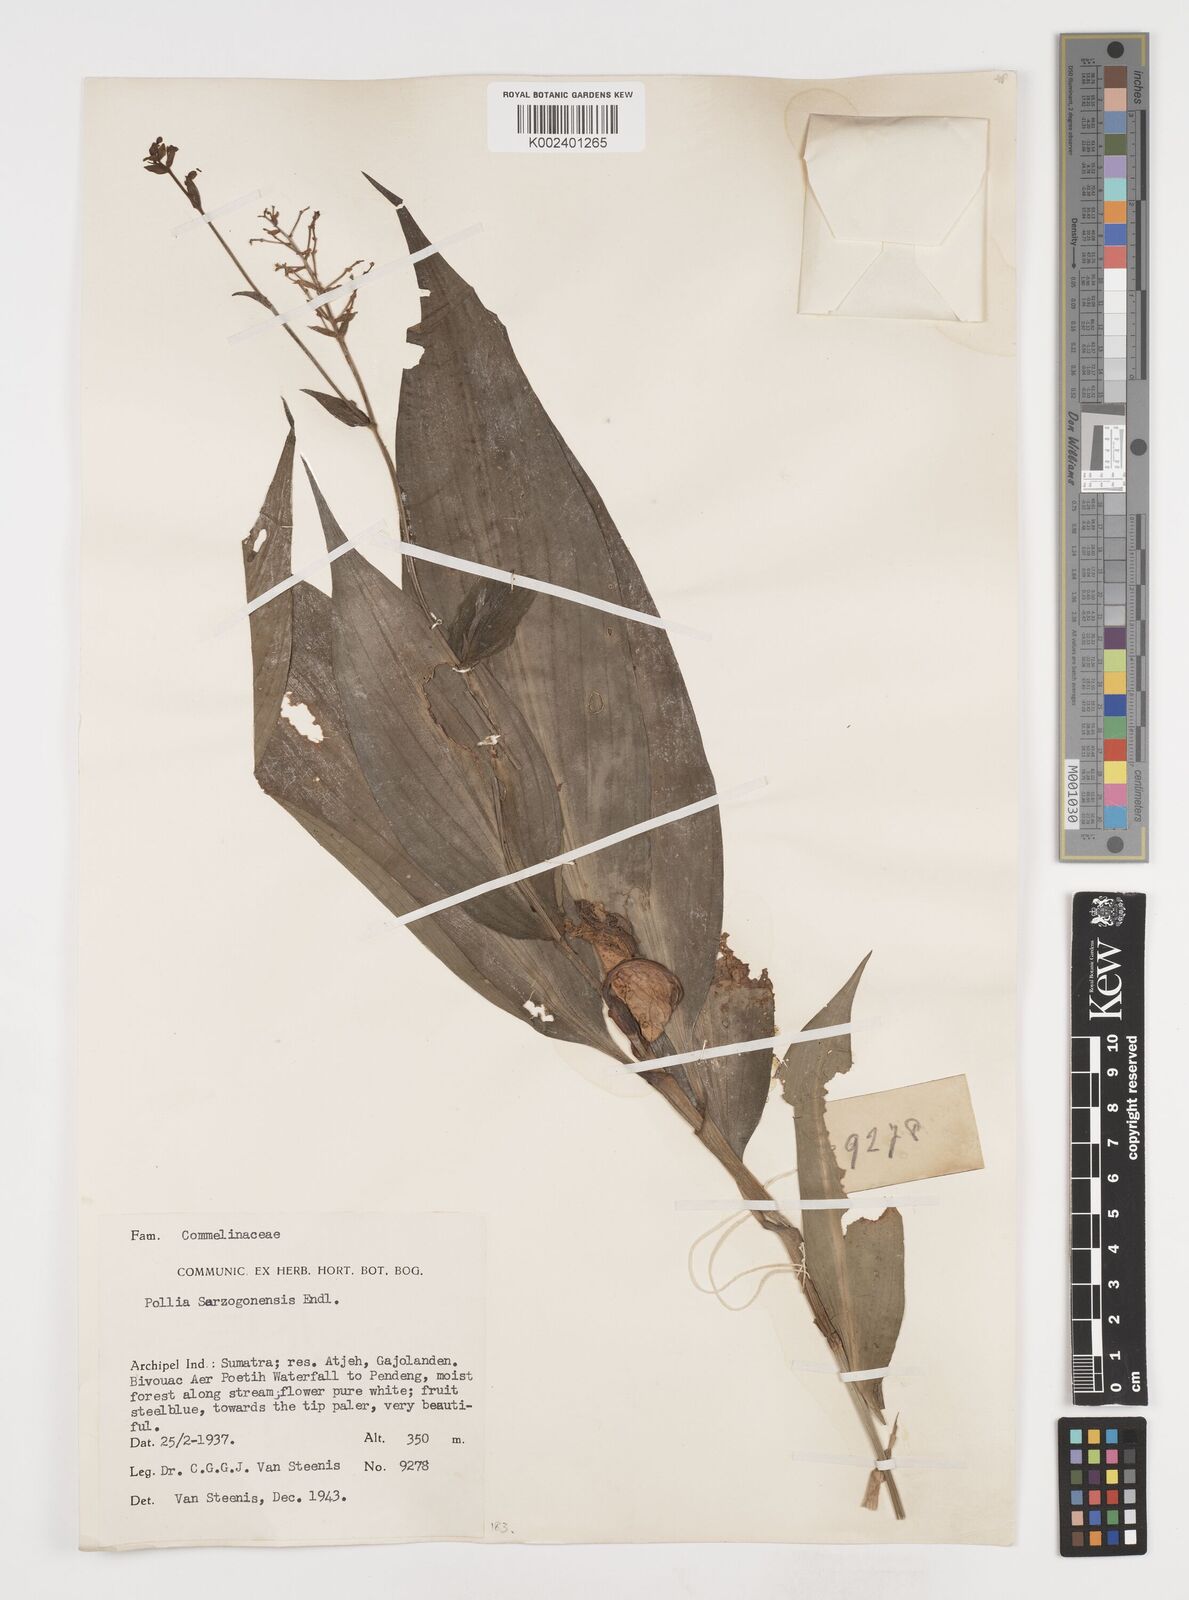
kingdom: Plantae
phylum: Tracheophyta
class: Liliopsida
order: Commelinales
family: Commelinaceae
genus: Pollia
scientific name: Pollia secundiflora
